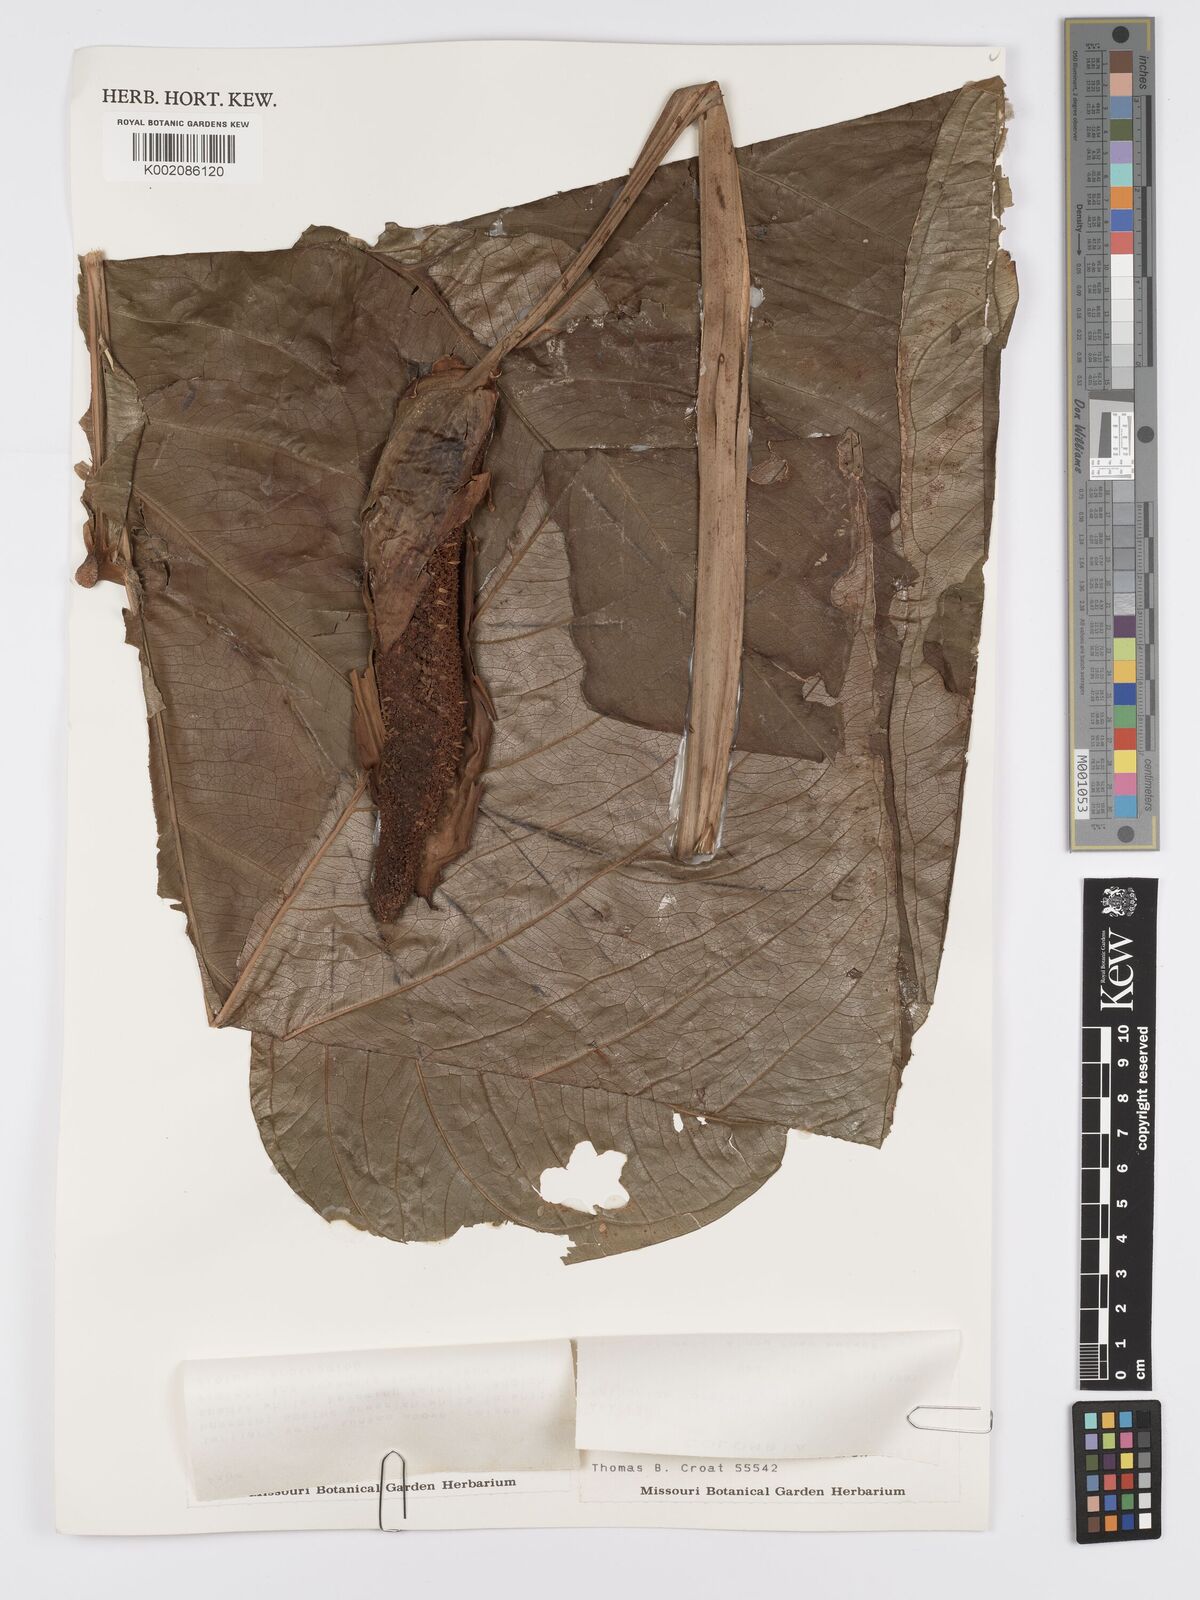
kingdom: Plantae
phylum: Tracheophyta
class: Liliopsida
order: Alismatales
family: Araceae
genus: Anthurium
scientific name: Anthurium formosum
